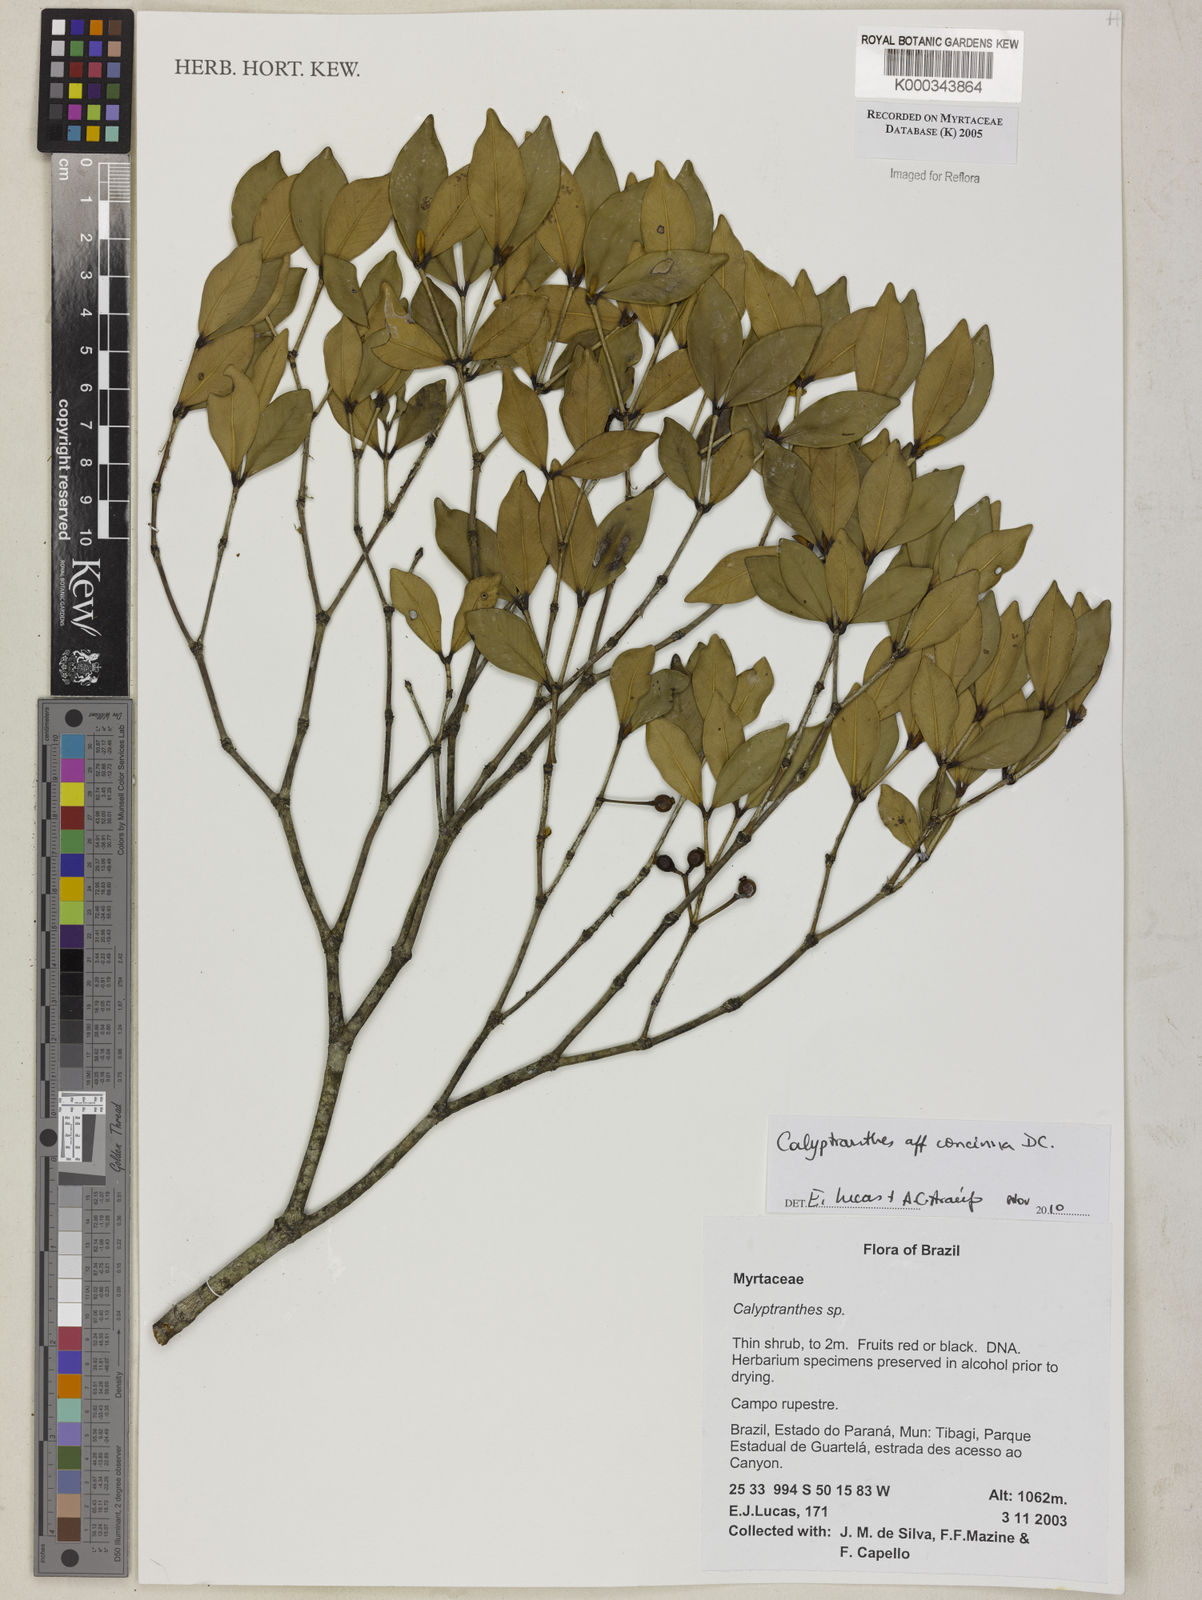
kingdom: Plantae
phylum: Tracheophyta
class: Magnoliopsida
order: Myrtales
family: Myrtaceae
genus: Calyptranthes
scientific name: Calyptranthes
